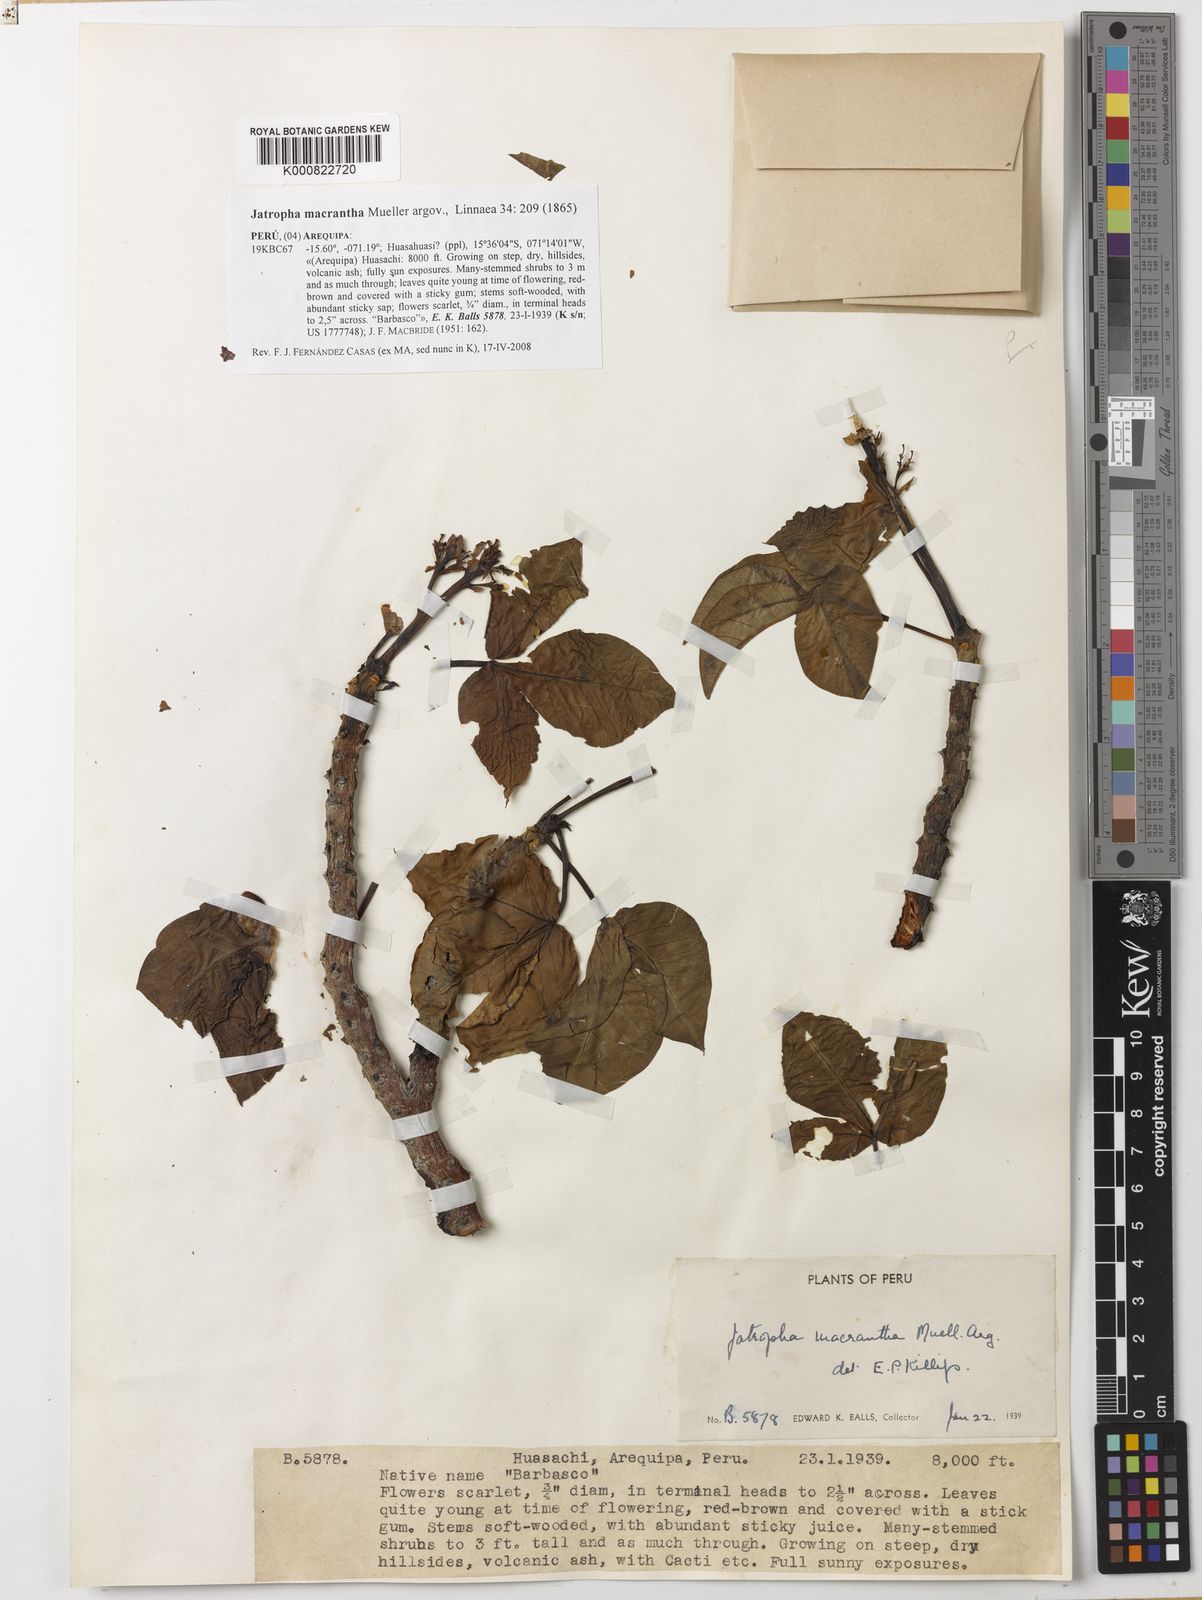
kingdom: Plantae
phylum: Tracheophyta
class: Magnoliopsida
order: Malpighiales
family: Euphorbiaceae
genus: Jatropha
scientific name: Jatropha
